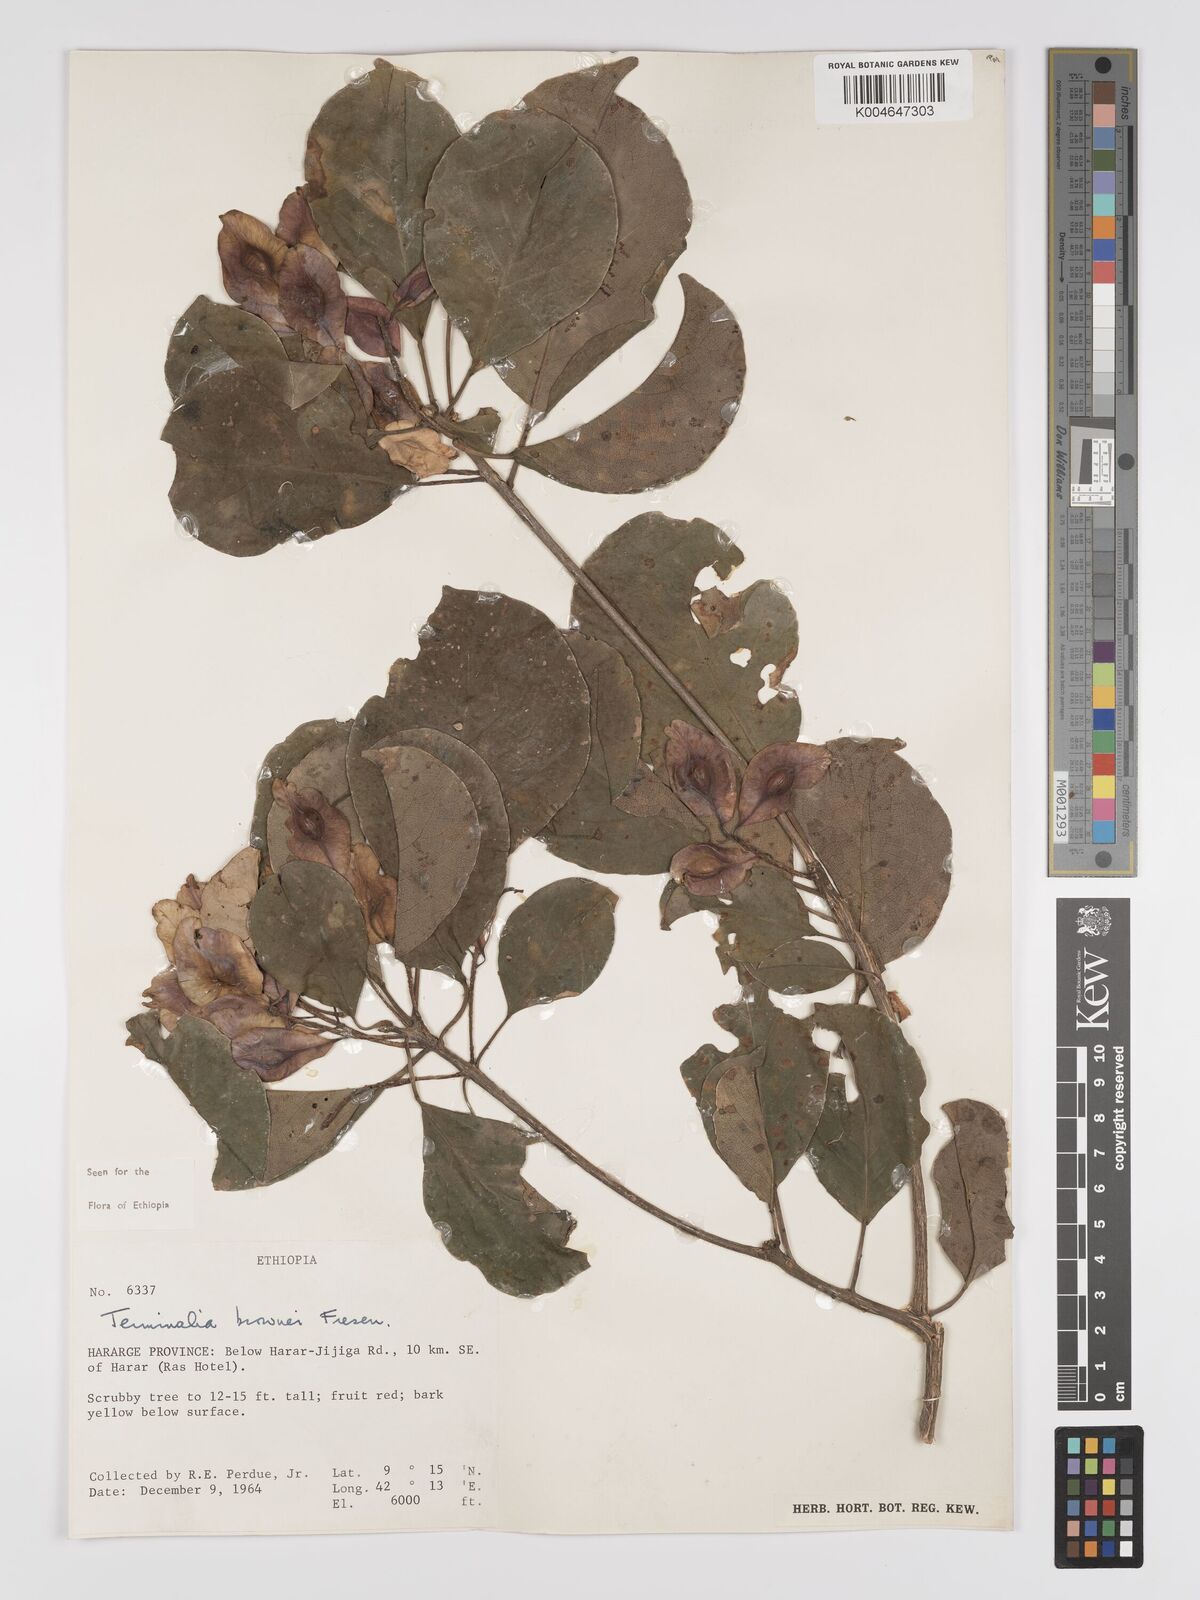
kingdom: Plantae
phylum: Tracheophyta
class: Magnoliopsida
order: Myrtales
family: Combretaceae
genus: Terminalia
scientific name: Terminalia brownii
